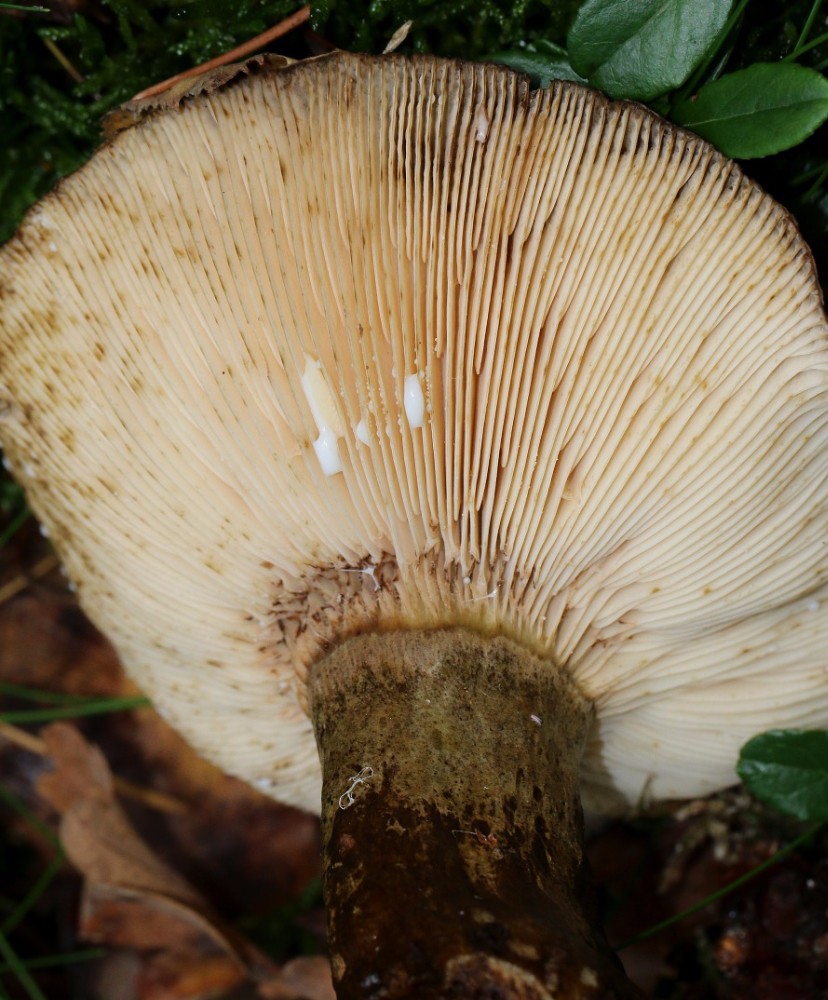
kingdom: Fungi
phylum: Basidiomycota
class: Agaricomycetes
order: Russulales
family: Russulaceae
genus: Lactarius
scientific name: Lactarius necator
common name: manddraber-mælkehat
